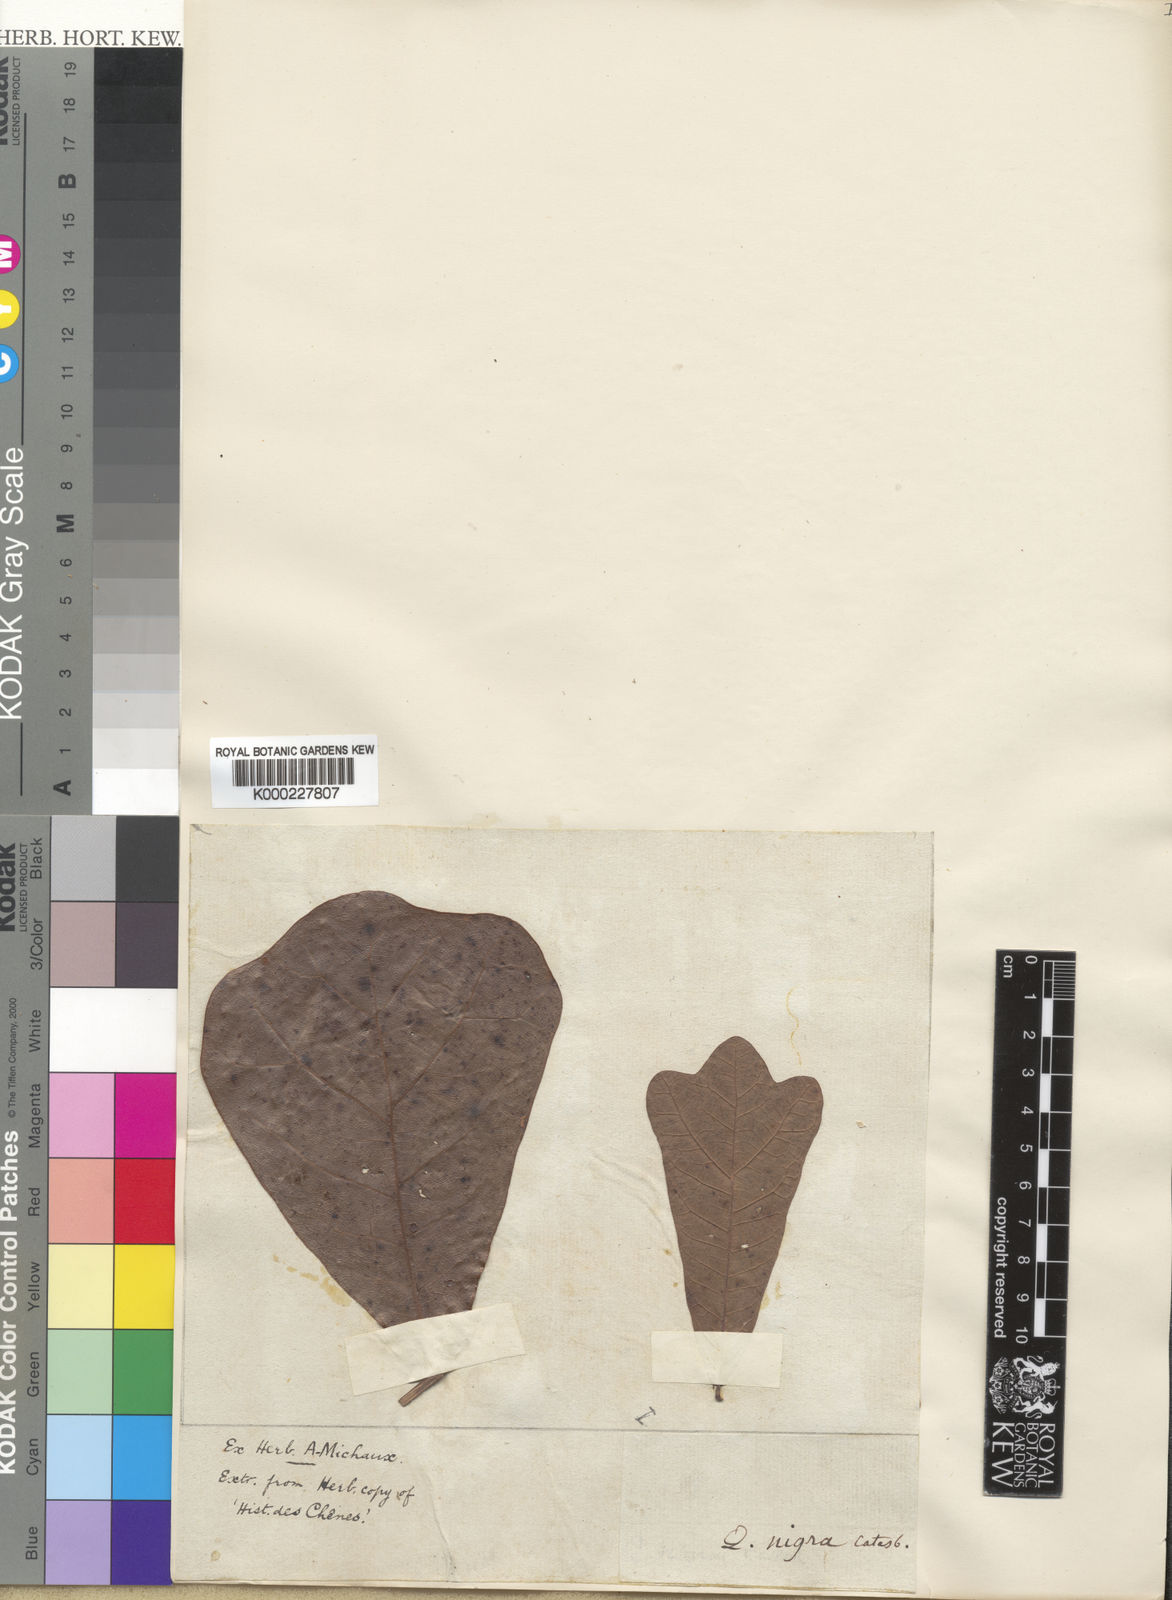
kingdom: Plantae
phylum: Tracheophyta
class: Magnoliopsida
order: Fagales
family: Fagaceae
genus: Quercus
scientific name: Quercus
